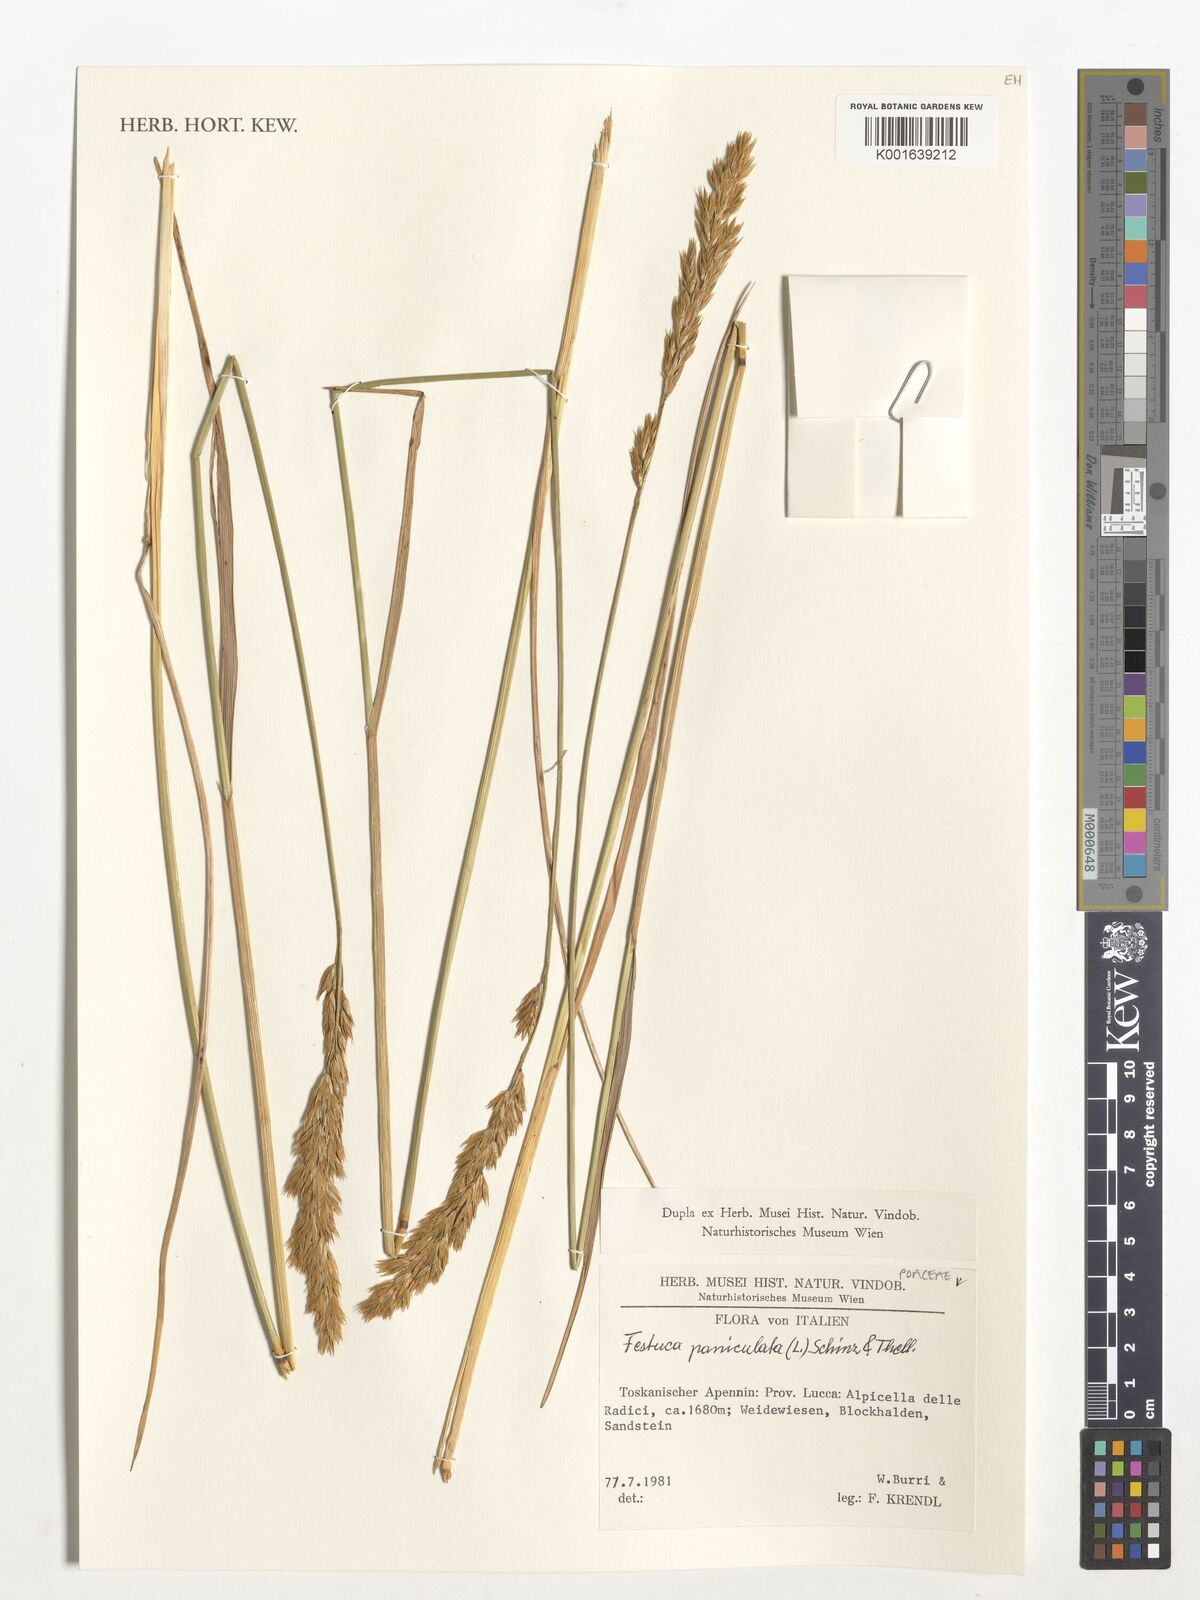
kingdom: Plantae
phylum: Tracheophyta
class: Liliopsida
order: Poales
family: Poaceae
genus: Patzkea
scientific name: Patzkea paniculata
